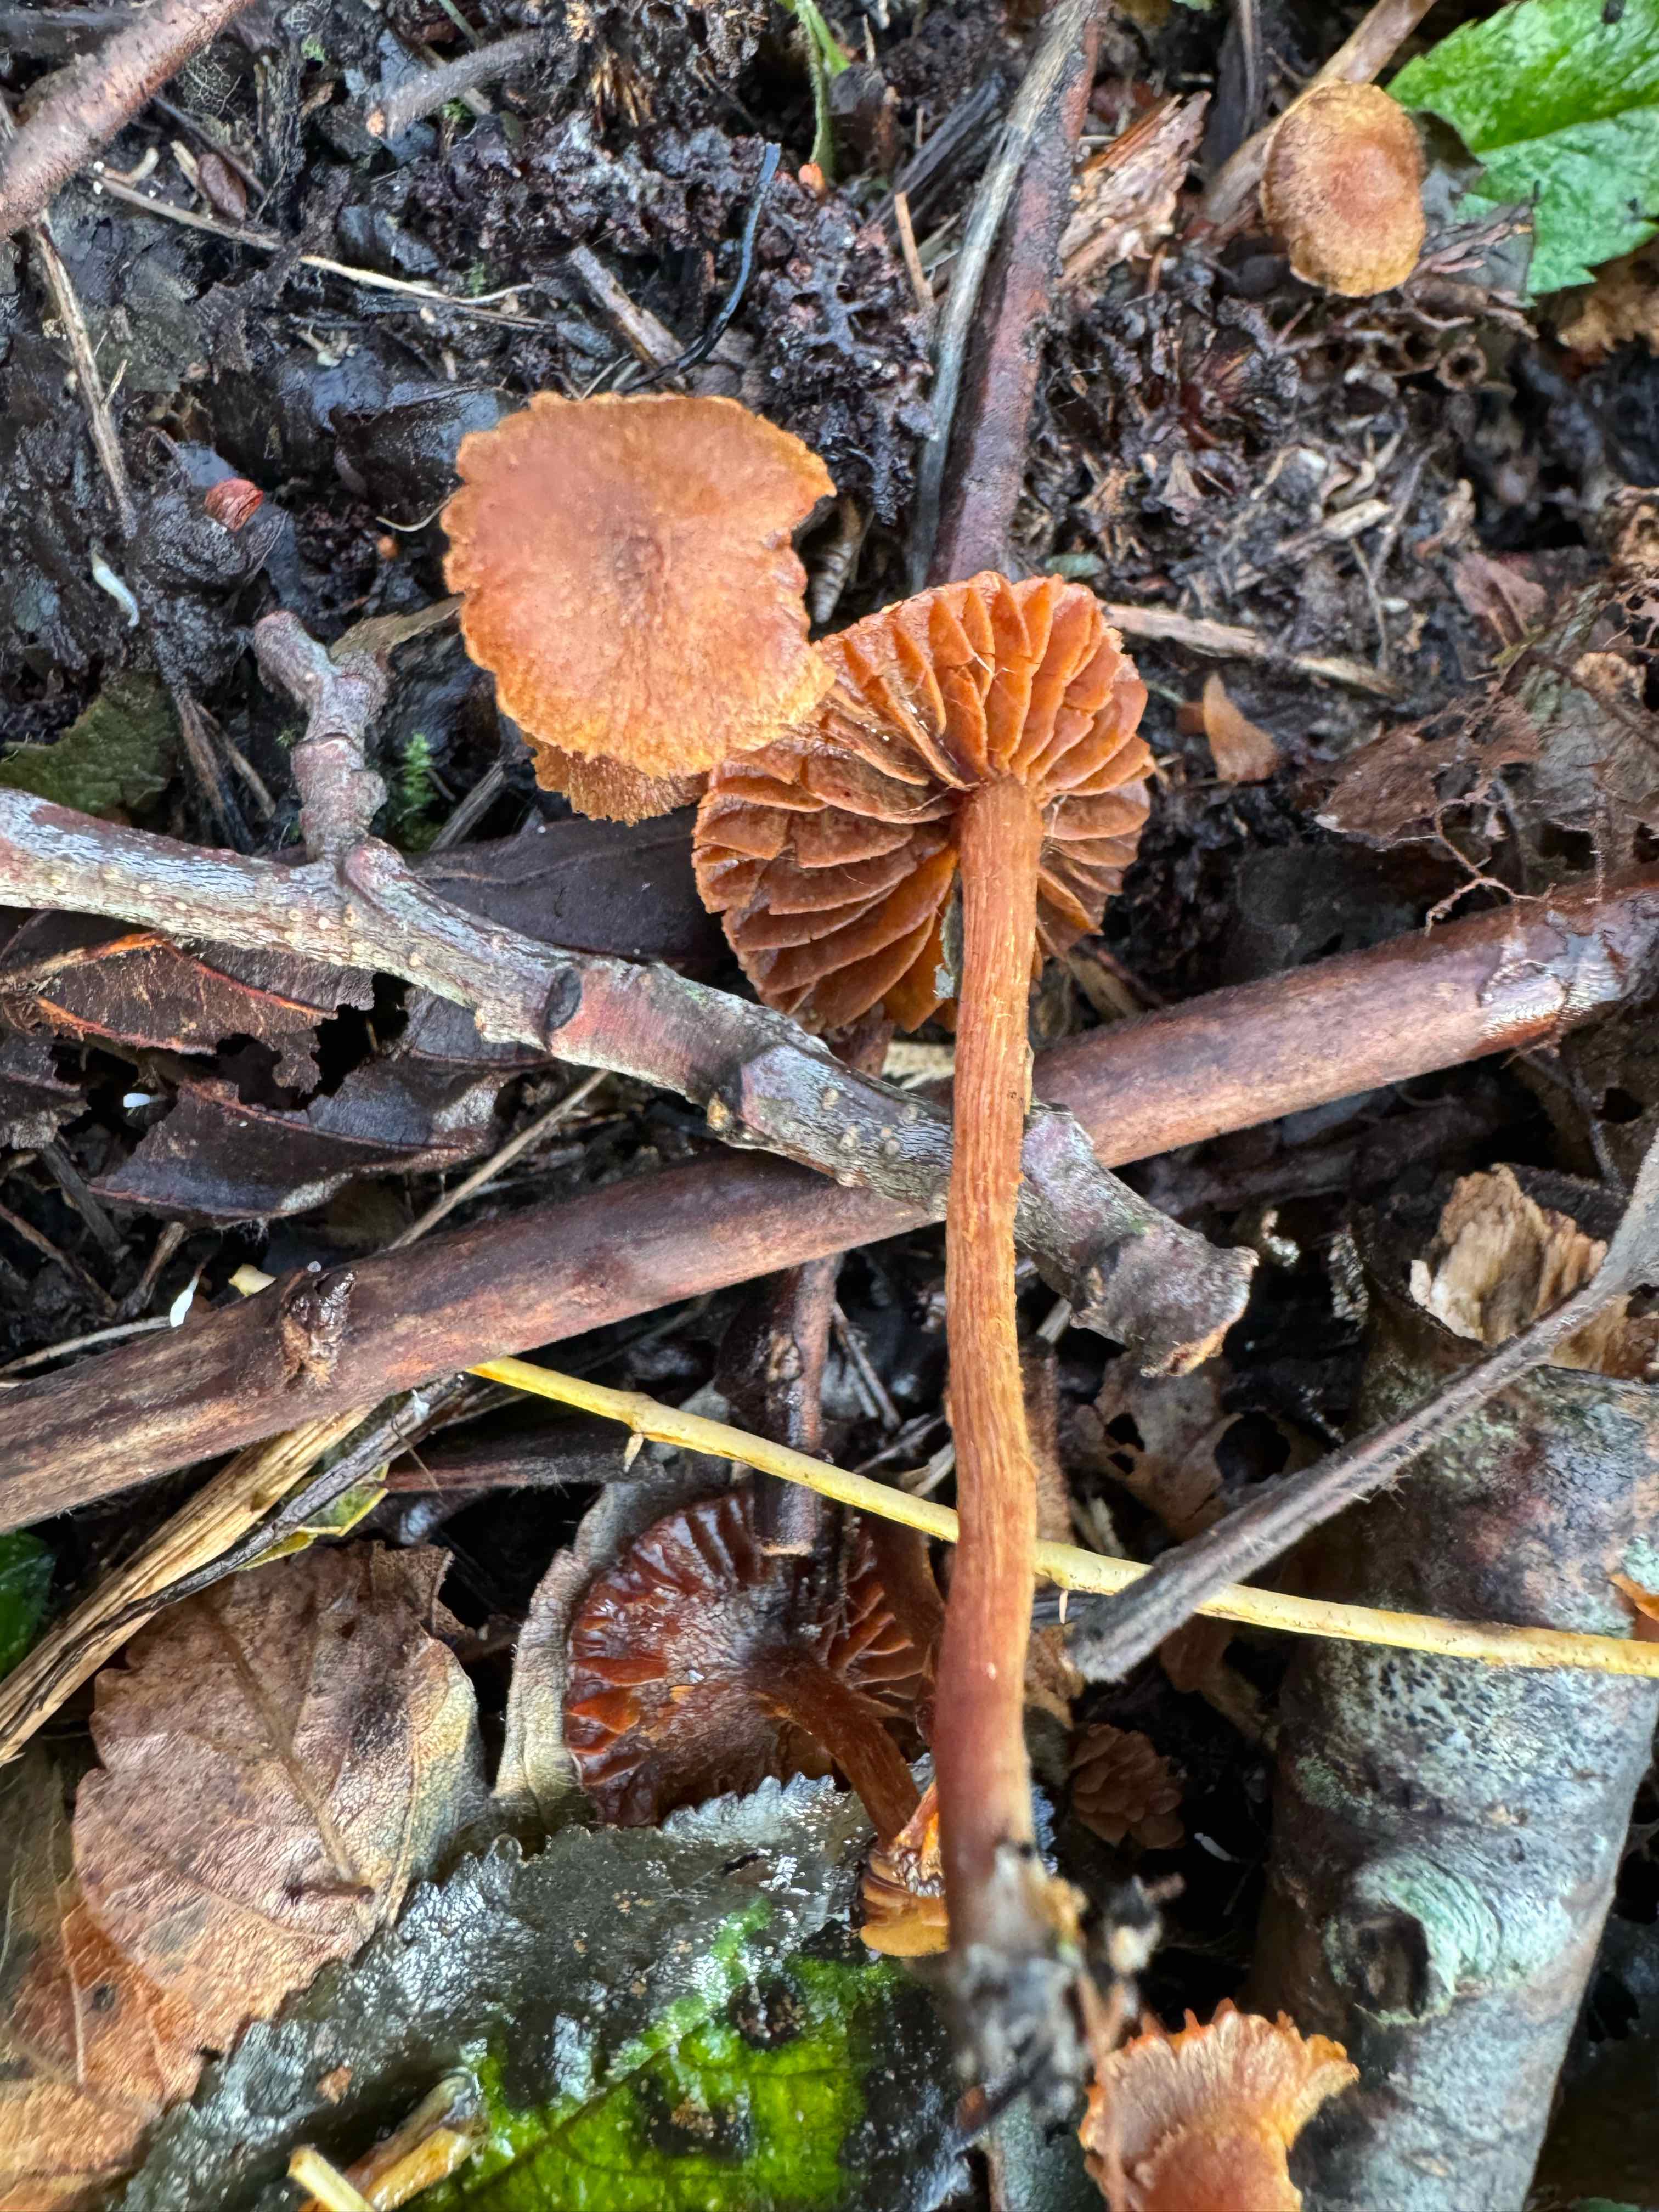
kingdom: Fungi
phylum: Basidiomycota
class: Agaricomycetes
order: Agaricales
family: Cortinariaceae
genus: Cortinarius
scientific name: Cortinarius
